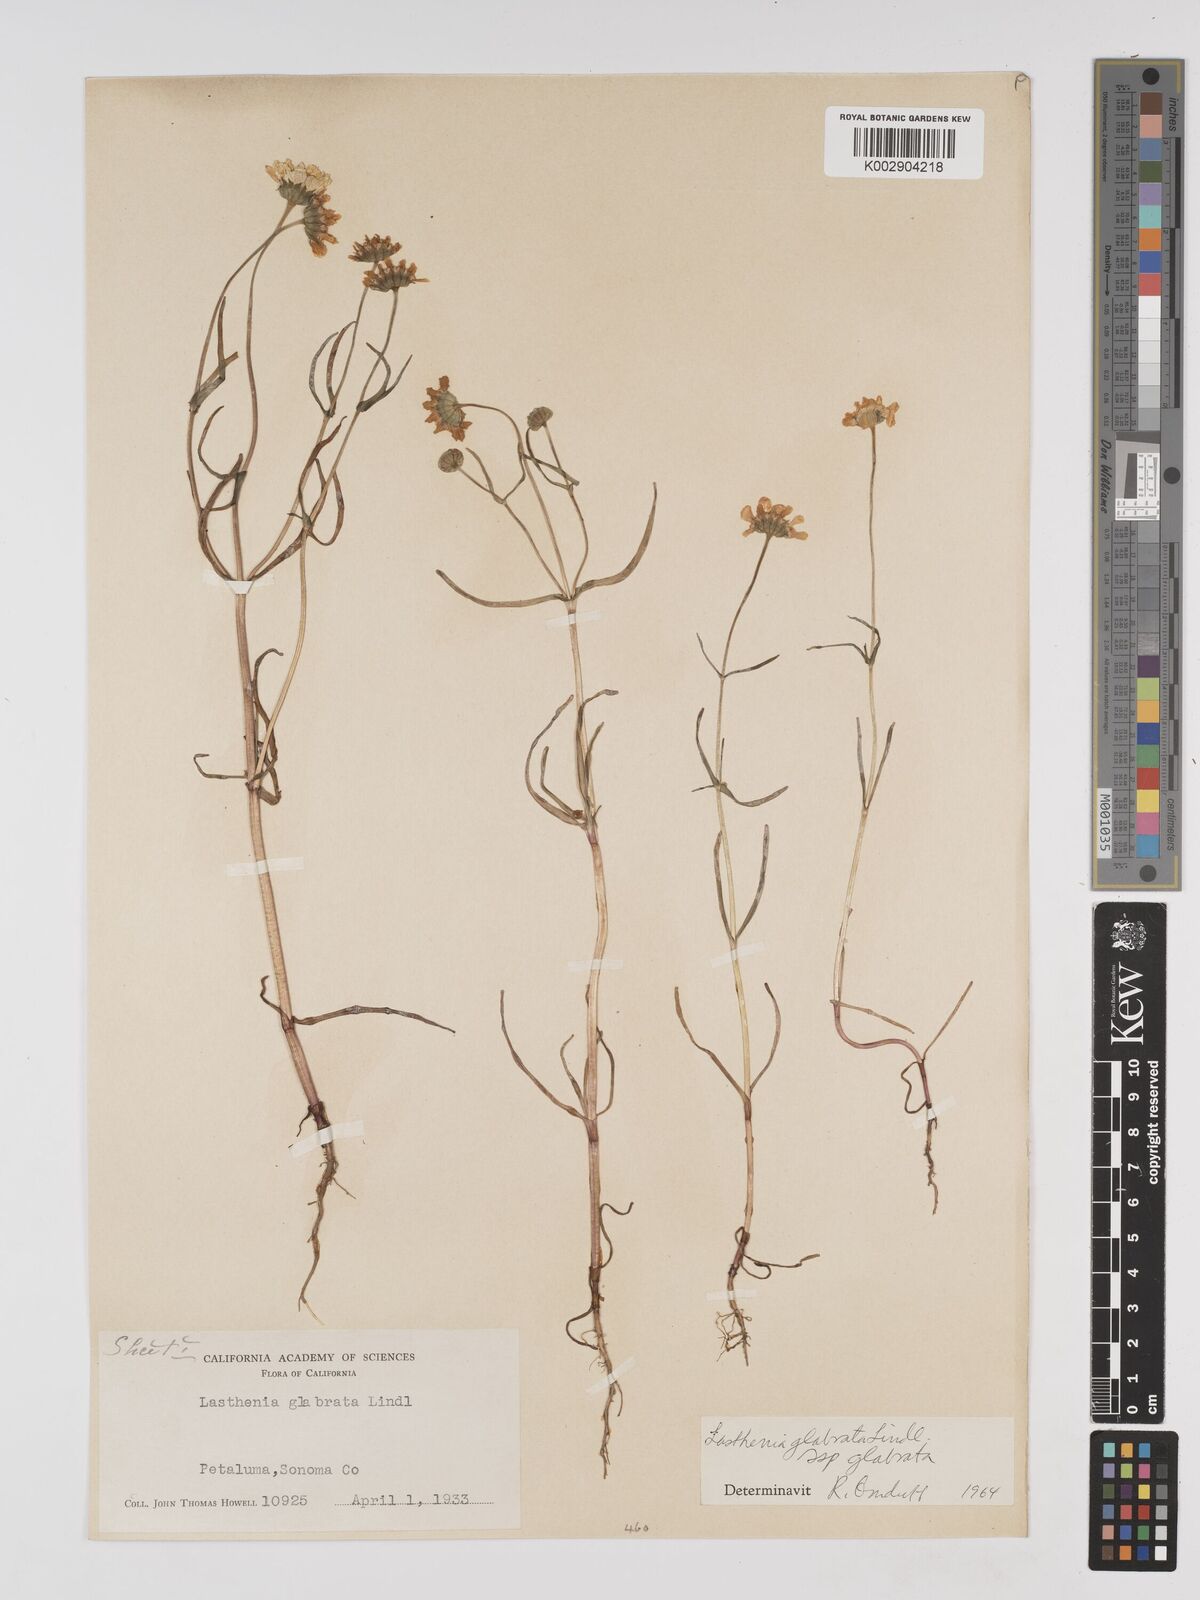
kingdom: Plantae
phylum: Tracheophyta
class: Magnoliopsida
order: Asterales
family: Asteraceae
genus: Lasthenia
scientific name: Lasthenia glabrata
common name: Yellow-ray lasthenia
